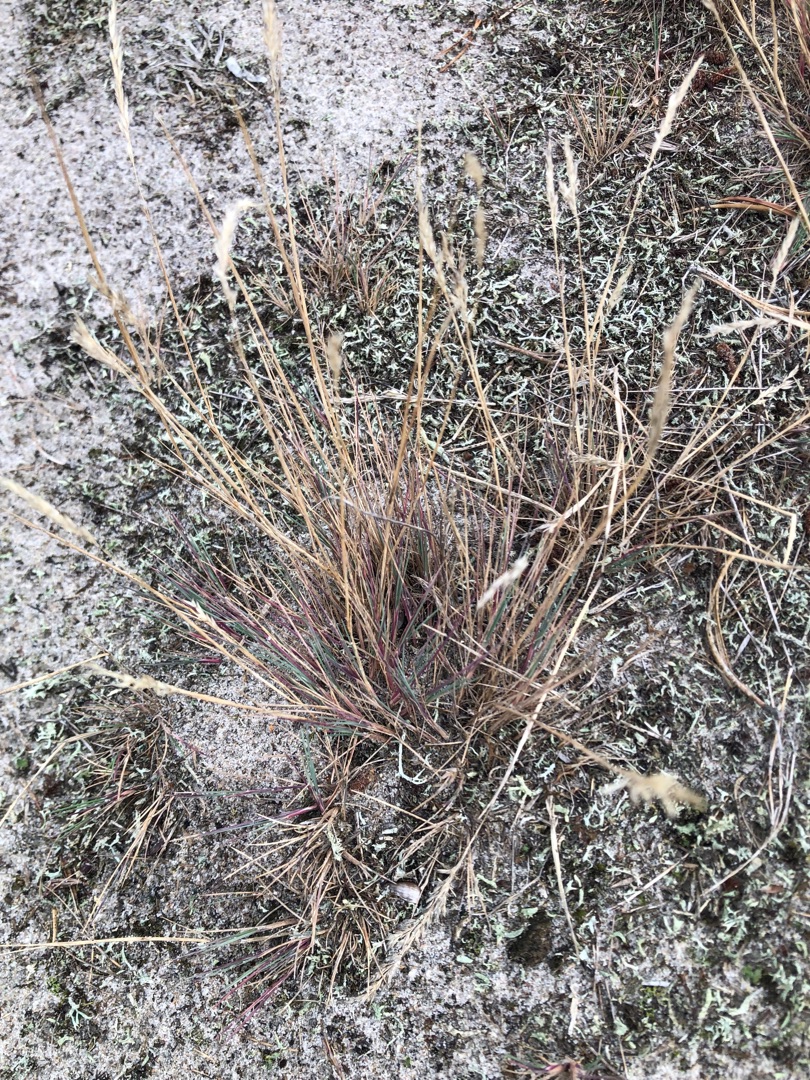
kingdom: Plantae
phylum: Tracheophyta
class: Liliopsida
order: Poales
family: Poaceae
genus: Corynephorus
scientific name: Corynephorus canescens
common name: Sandskæg
